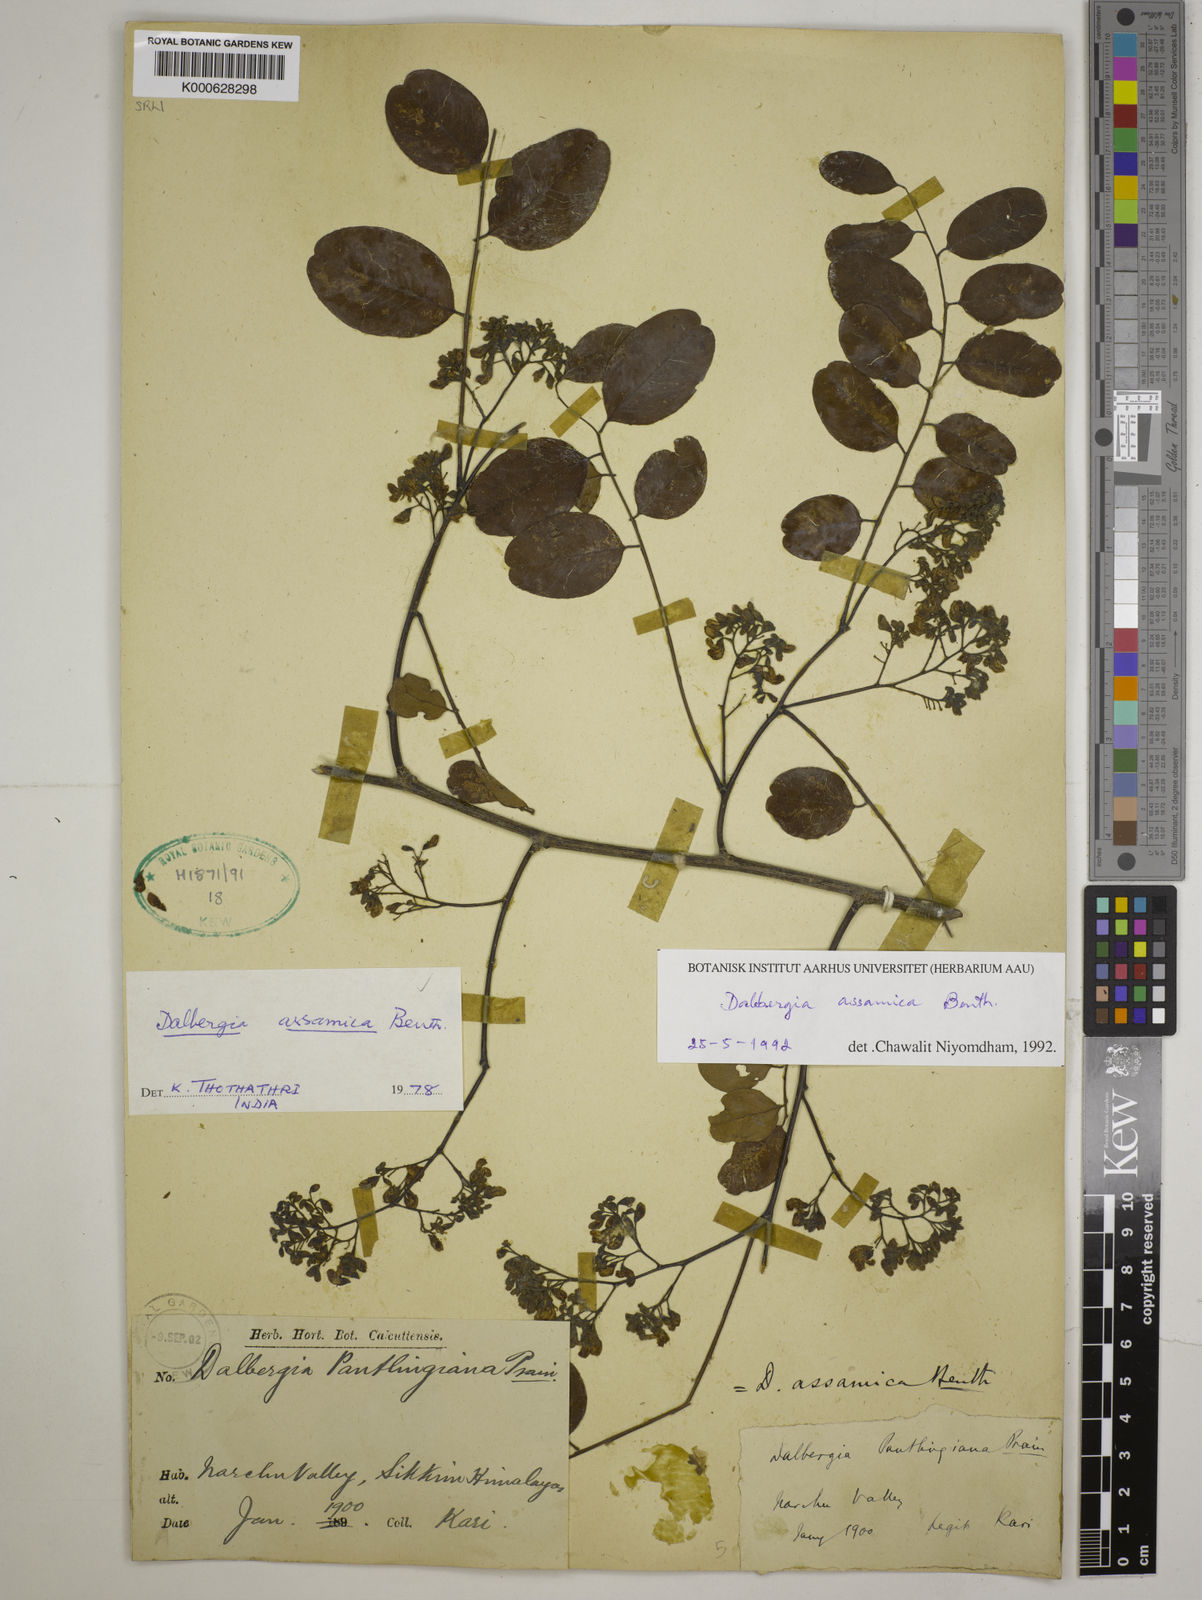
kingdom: Plantae
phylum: Tracheophyta
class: Magnoliopsida
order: Fabales
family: Fabaceae
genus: Dalbergia
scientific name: Dalbergia assamica
